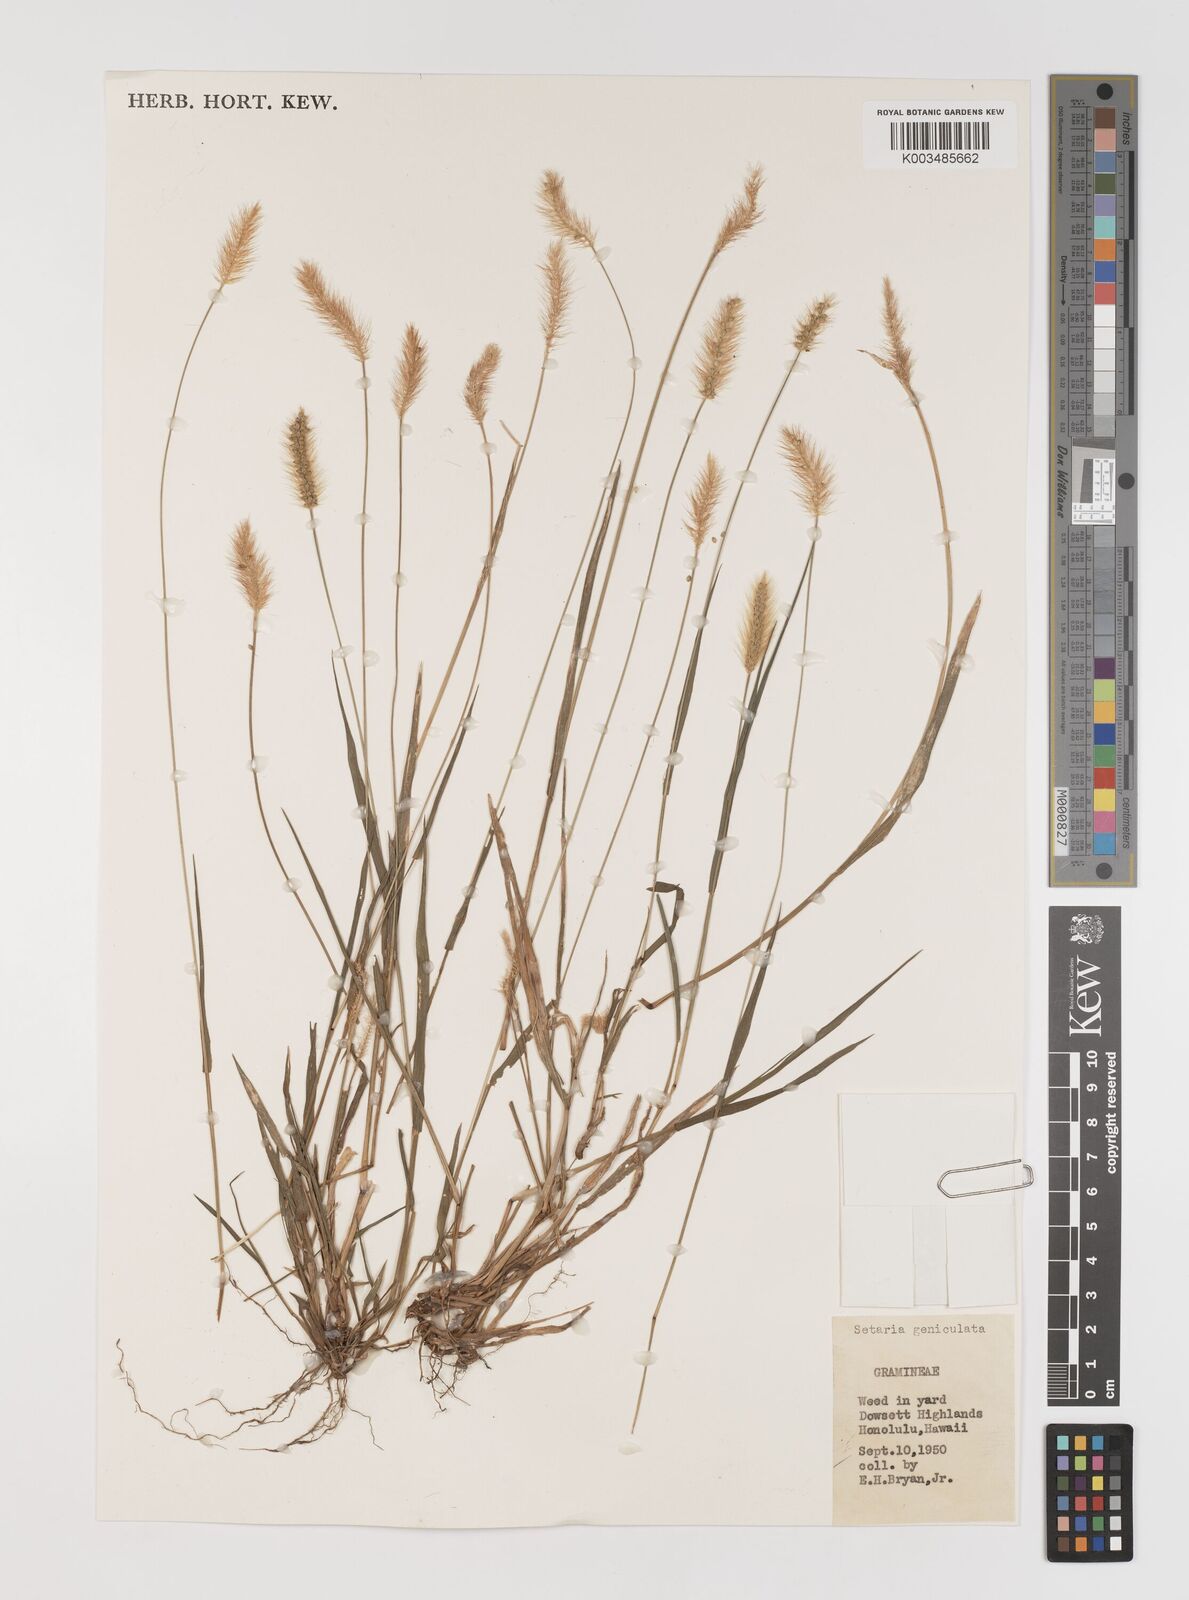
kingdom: Plantae
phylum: Tracheophyta
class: Liliopsida
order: Poales
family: Poaceae
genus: Setaria
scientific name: Setaria parviflora
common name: Knotroot bristle-grass
